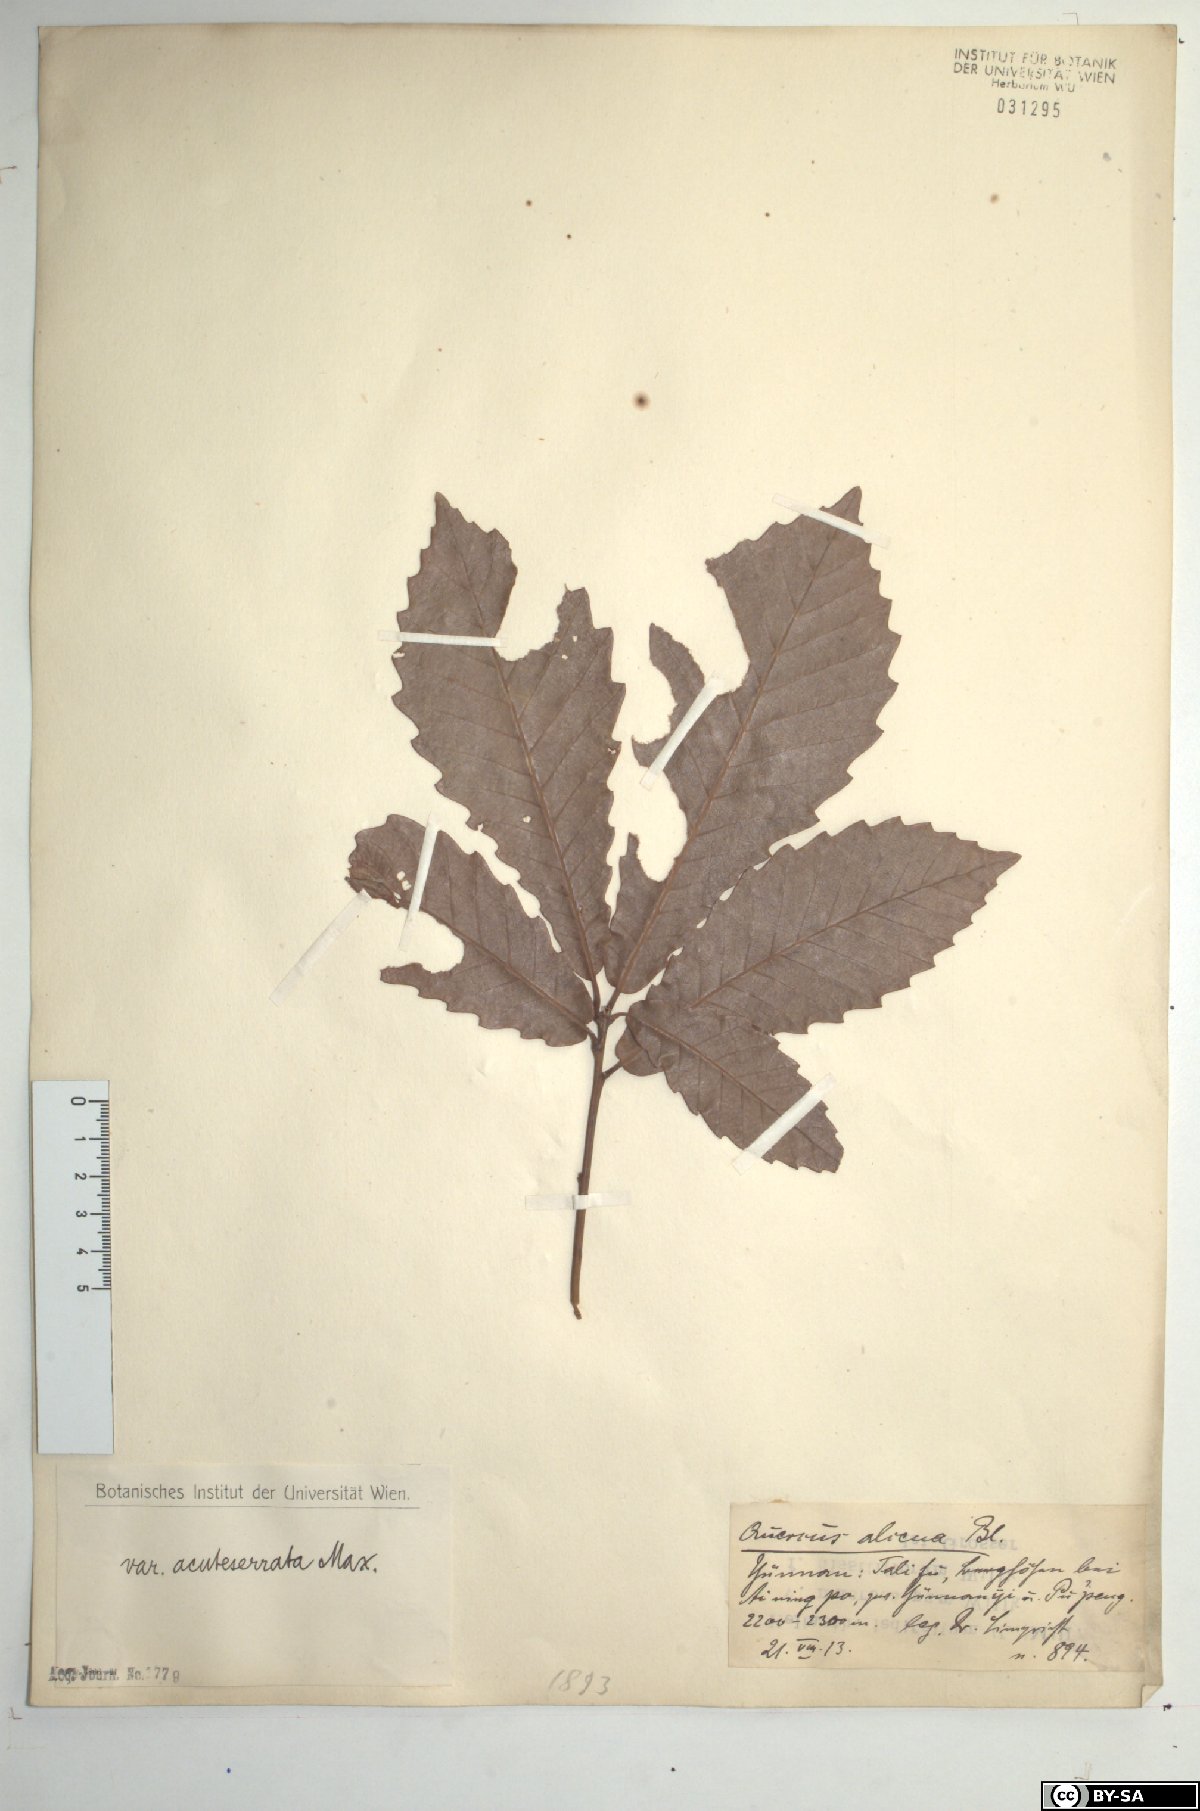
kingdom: Plantae
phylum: Tracheophyta
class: Magnoliopsida
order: Fagales
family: Fagaceae
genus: Quercus
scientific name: Quercus aliena
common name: Oriental white oak
